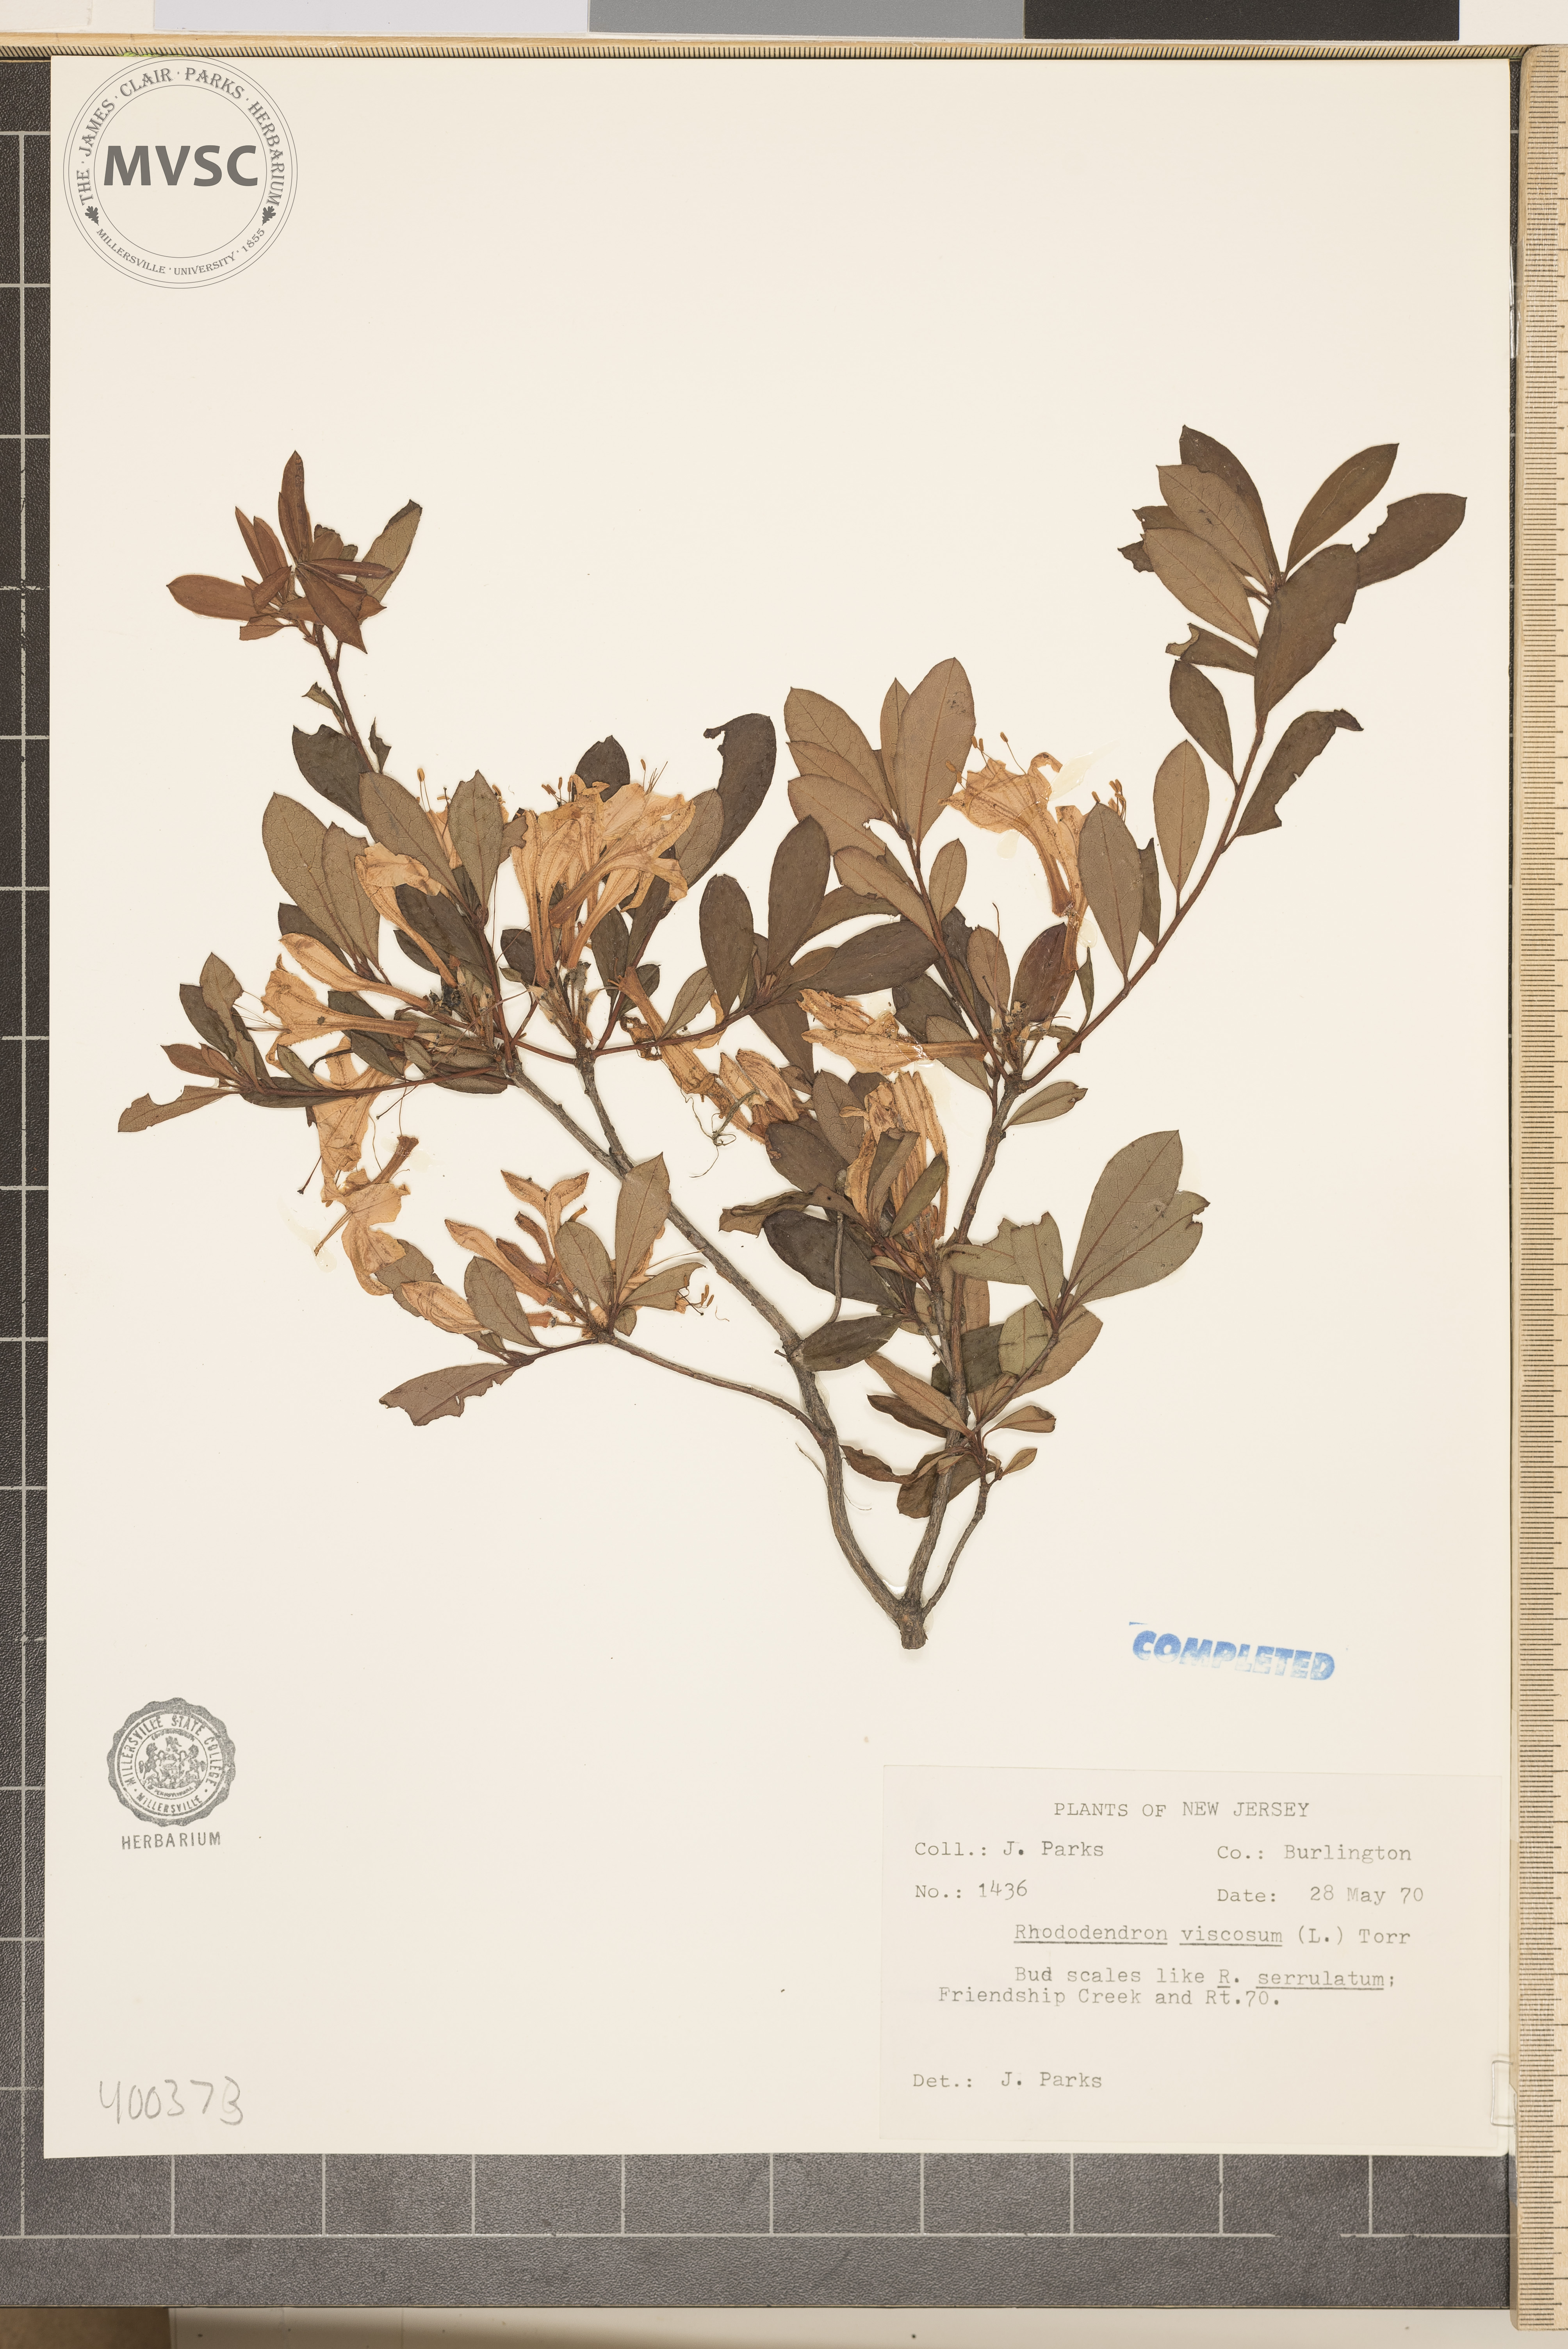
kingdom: Plantae
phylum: Tracheophyta
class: Magnoliopsida
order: Ericales
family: Ericaceae
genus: Rhododendron
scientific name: Rhododendron viscosum
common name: Clammy azalea
